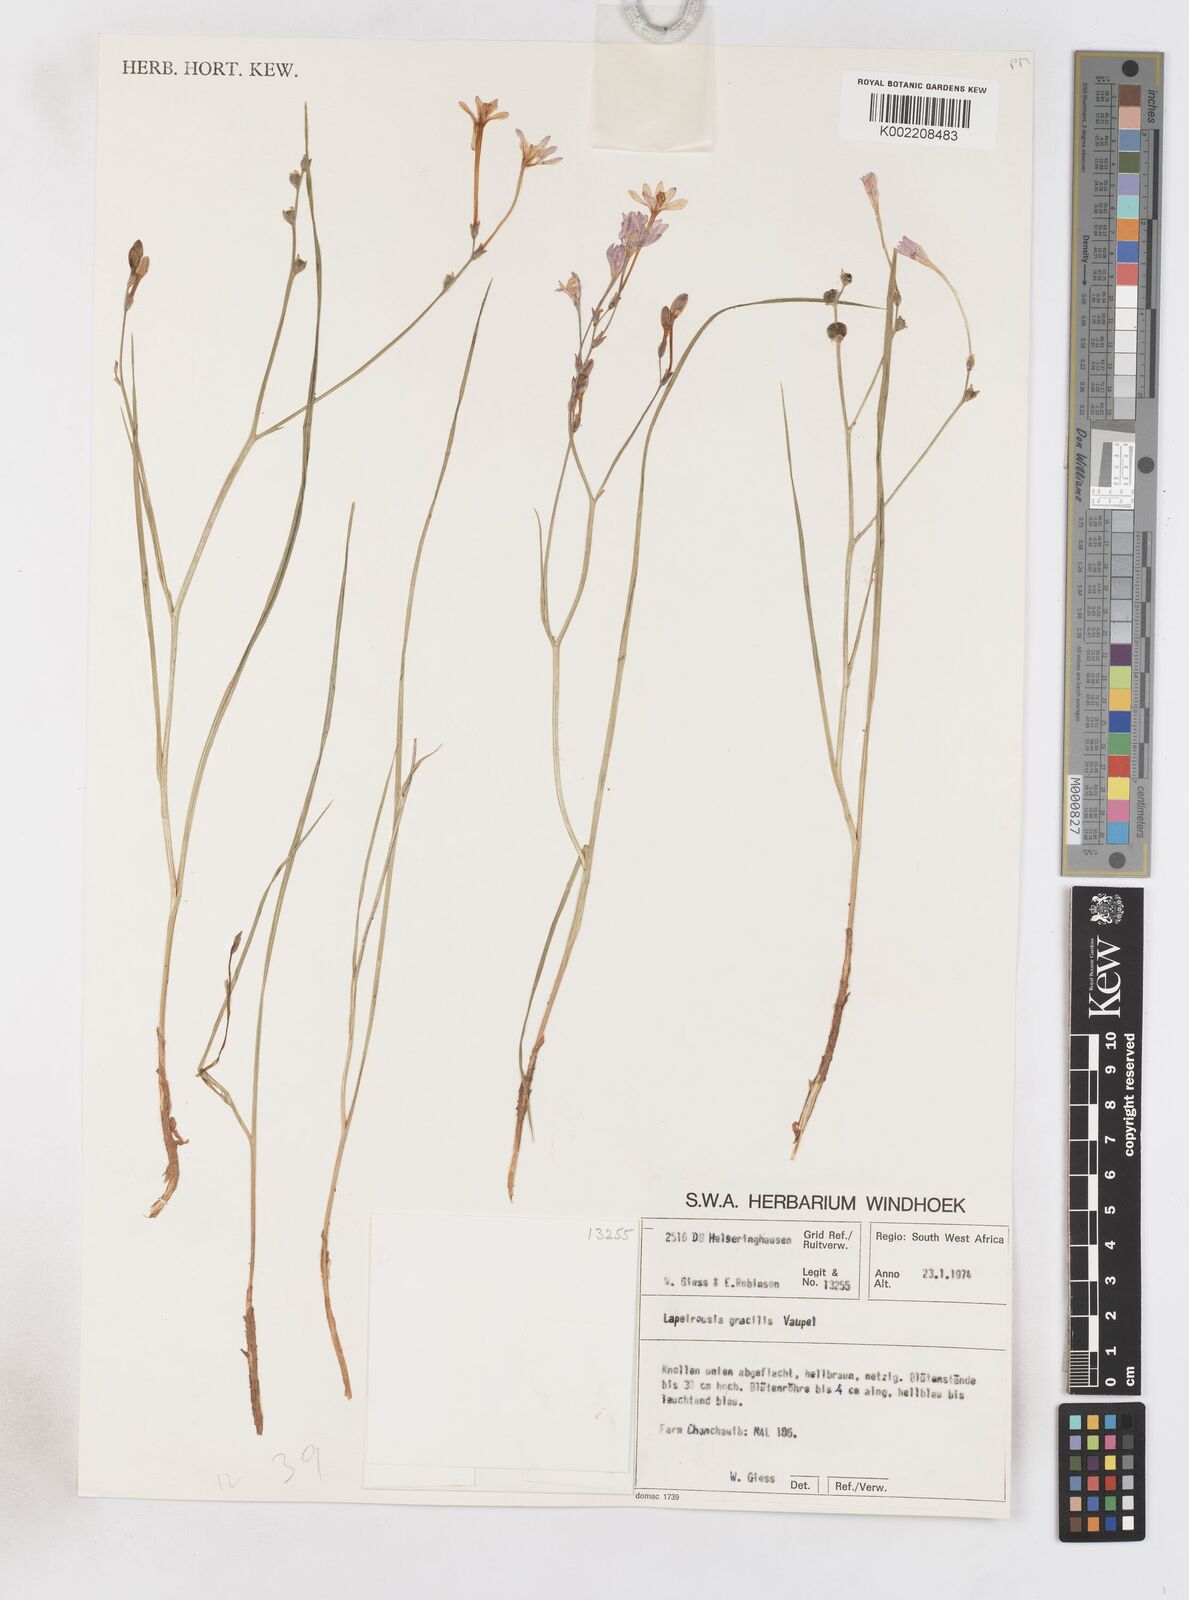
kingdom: Plantae
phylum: Tracheophyta
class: Liliopsida
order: Asparagales
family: Iridaceae
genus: Afrosolen
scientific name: Afrosolen gracilis
